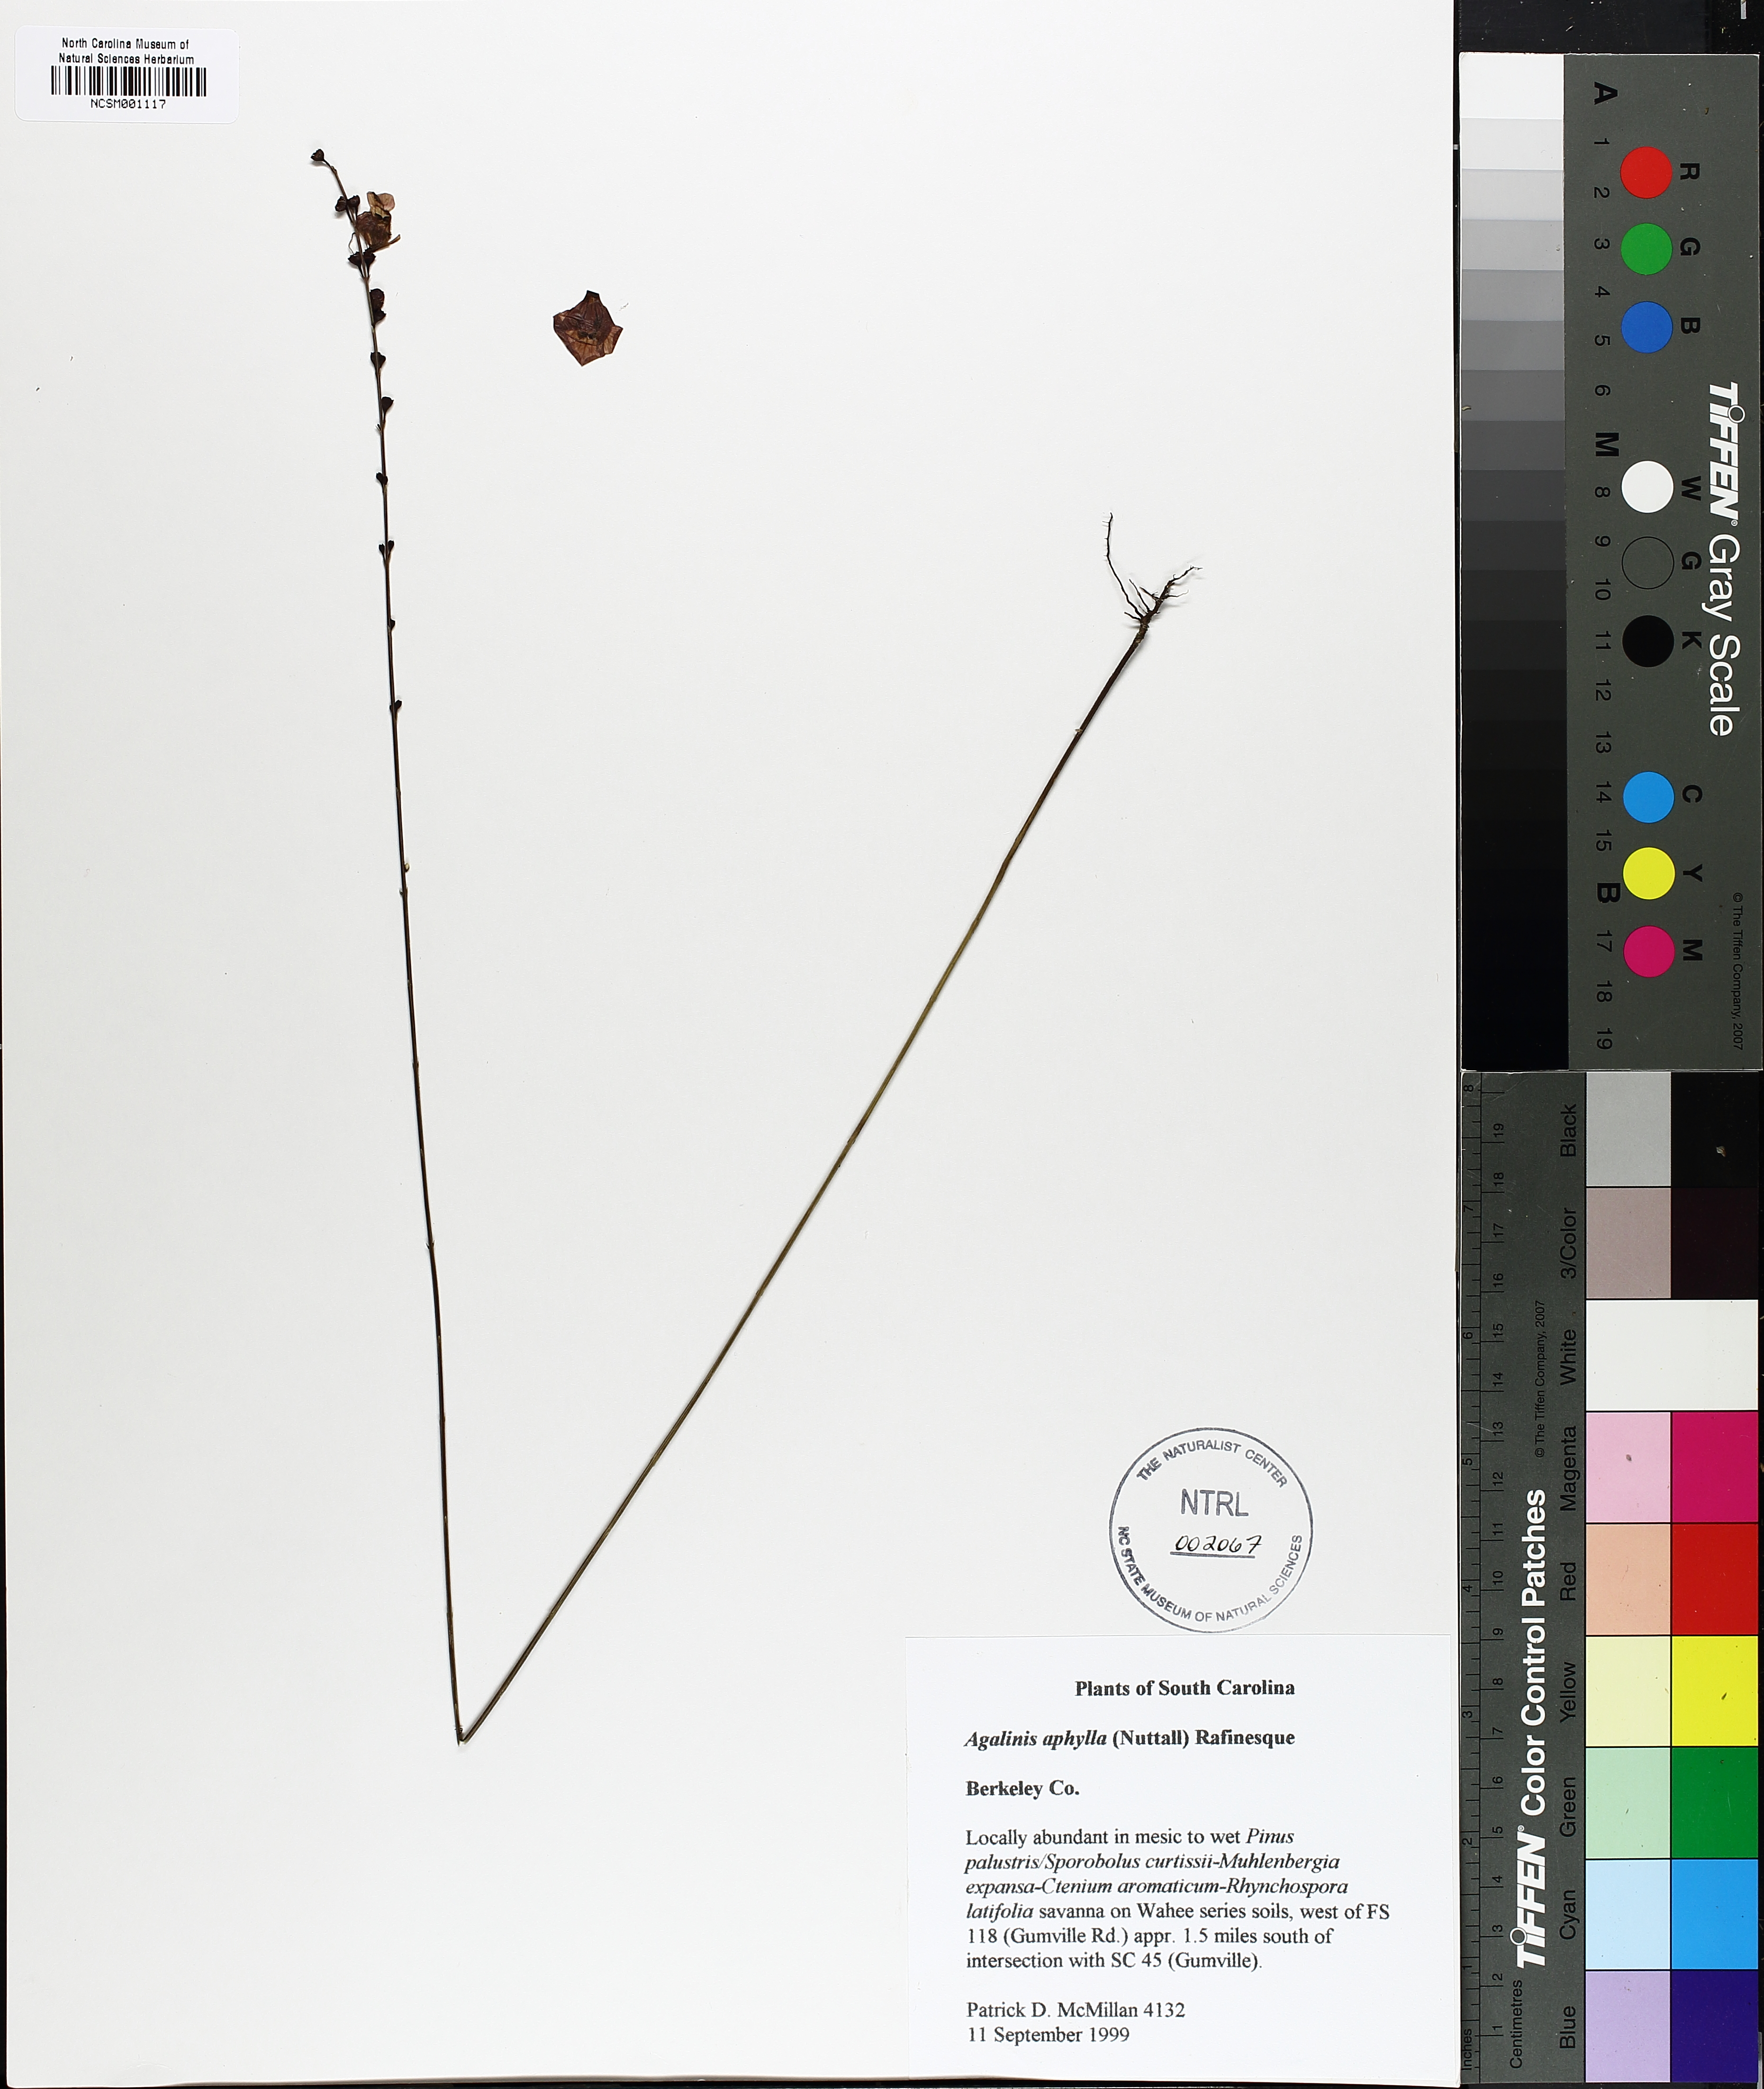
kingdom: Plantae
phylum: Tracheophyta
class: Magnoliopsida
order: Lamiales
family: Orobanchaceae
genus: Agalinis
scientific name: Agalinis aphylla
